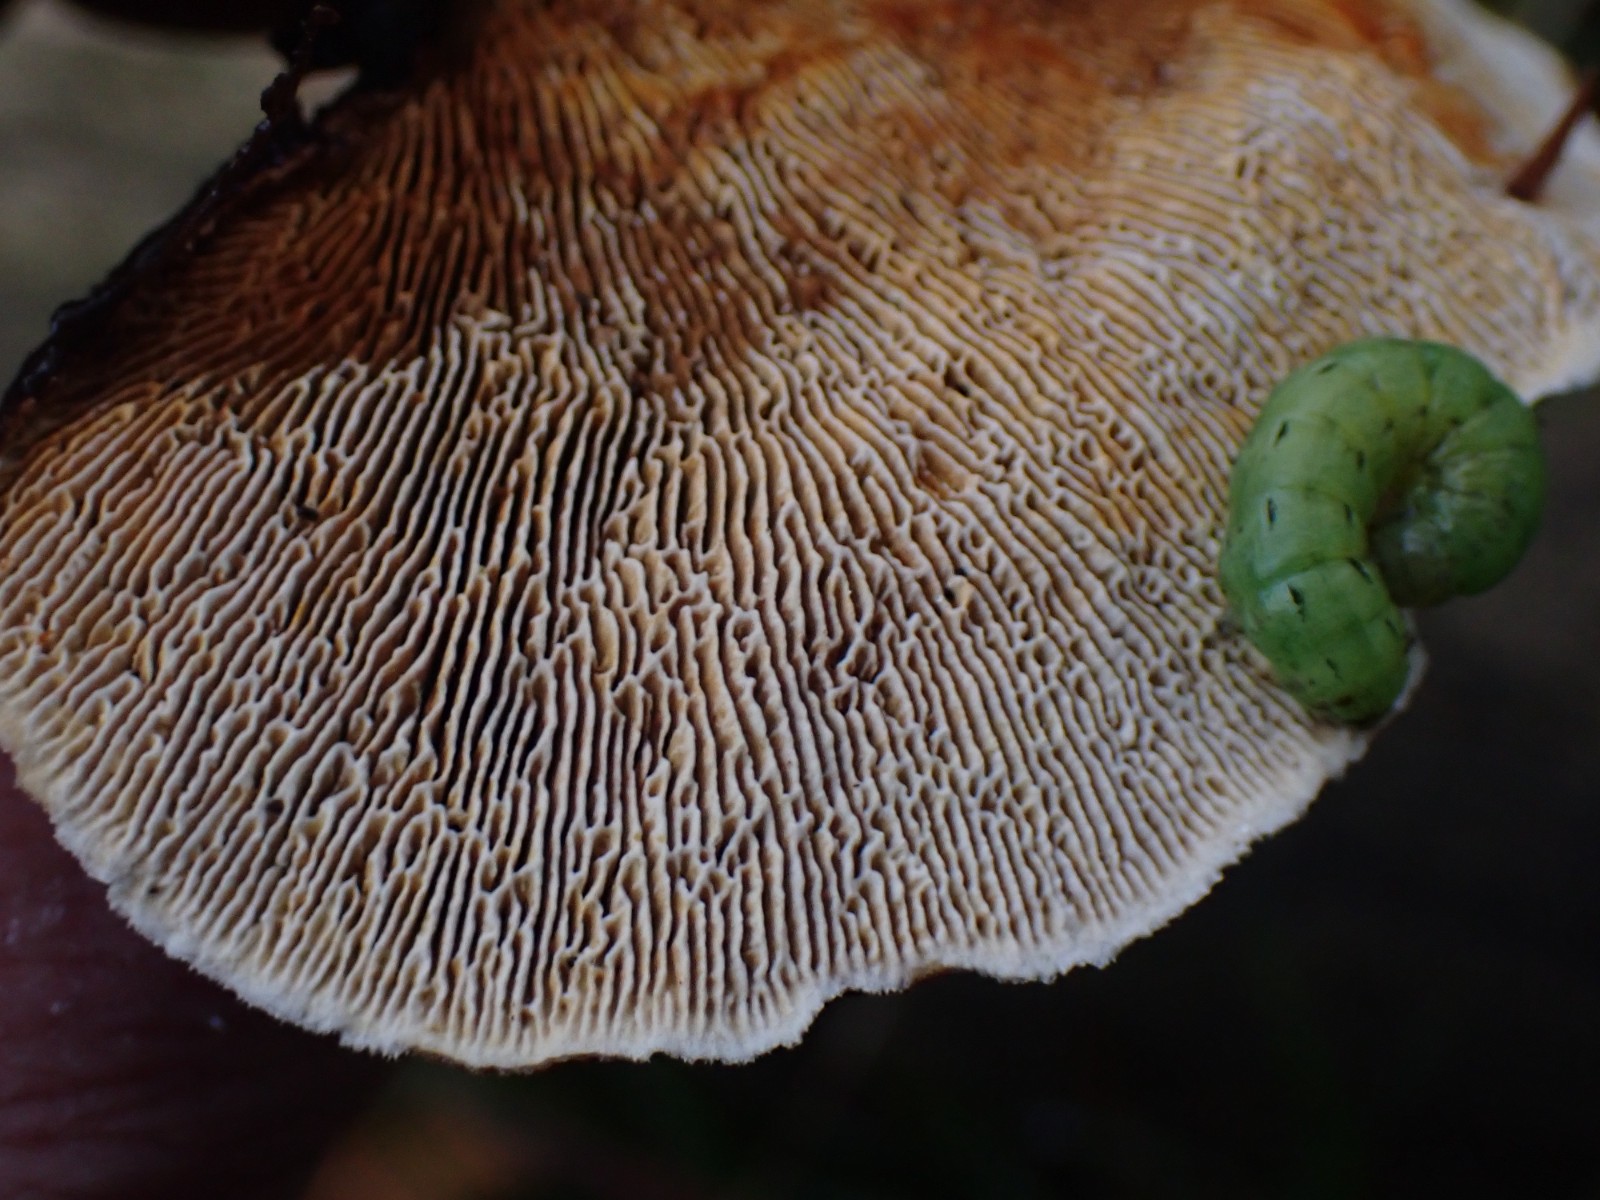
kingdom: Fungi
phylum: Basidiomycota
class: Agaricomycetes
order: Gloeophyllales
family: Gloeophyllaceae
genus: Gloeophyllum
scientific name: Gloeophyllum sepiarium
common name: fyrre-korkhat
